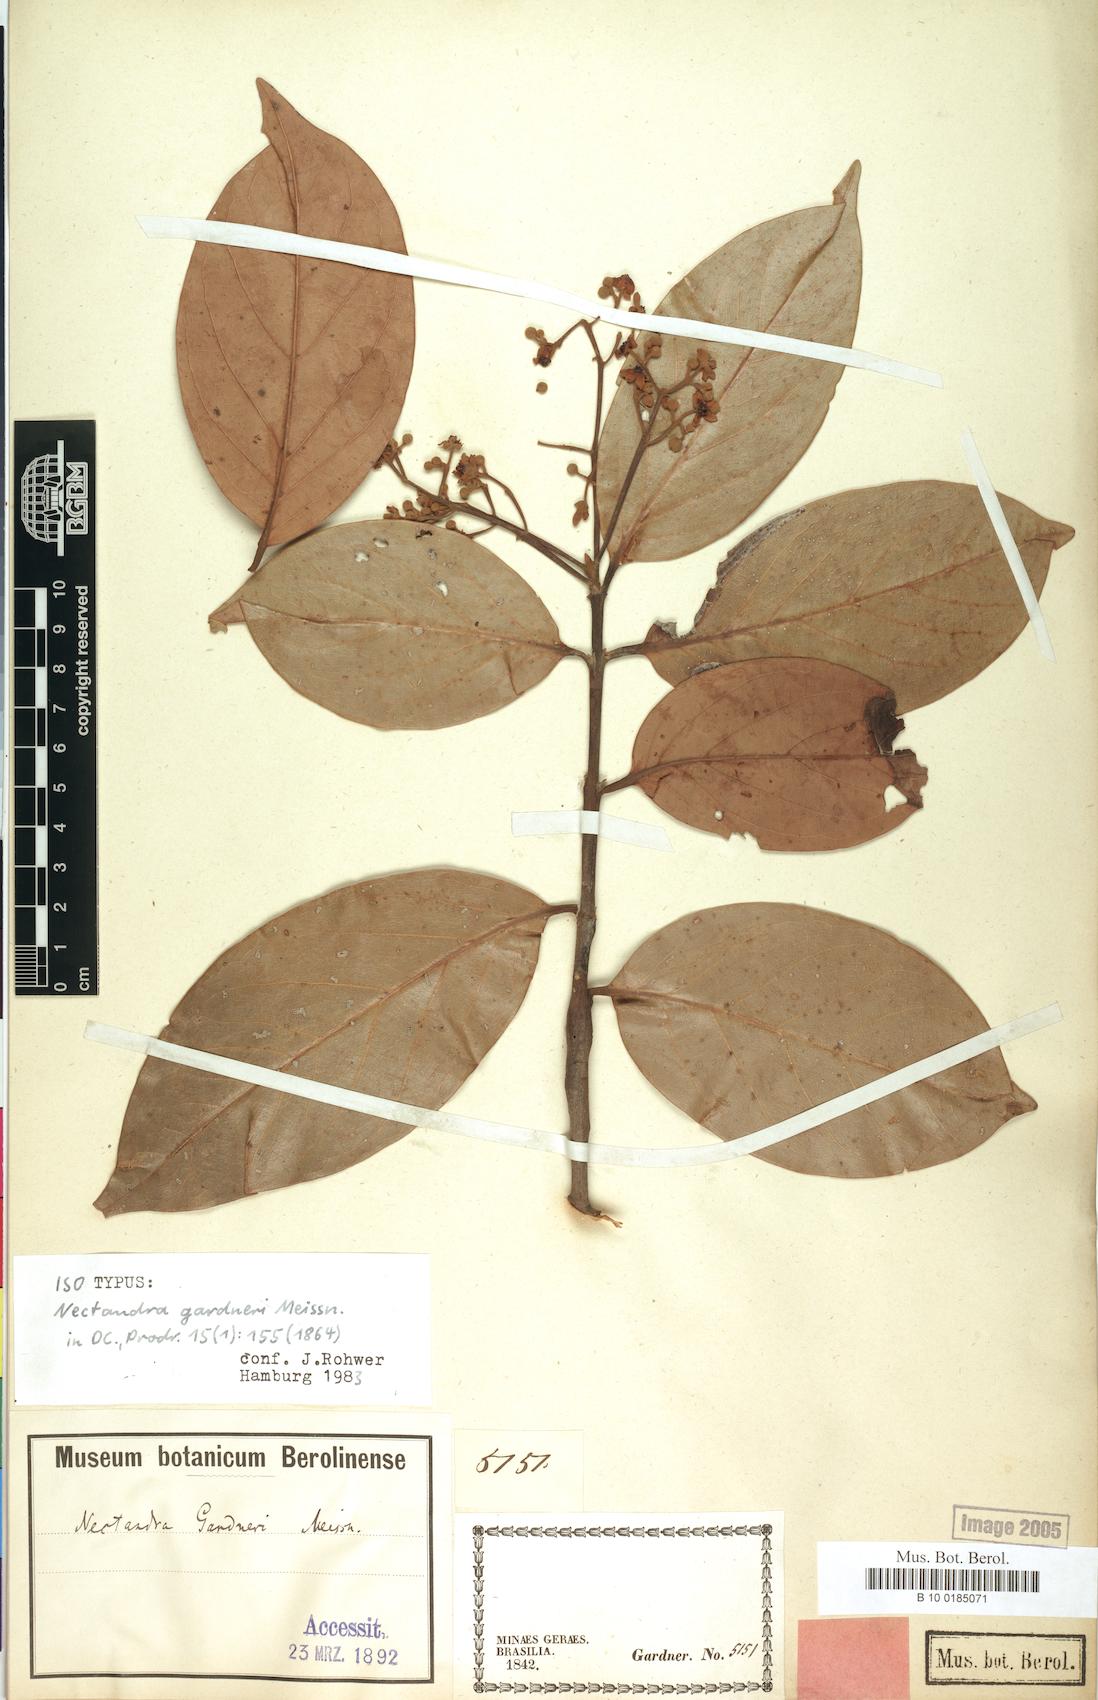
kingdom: Plantae
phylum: Tracheophyta
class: Magnoliopsida
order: Laurales
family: Lauraceae
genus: Nectandra
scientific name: Nectandra gardneri
